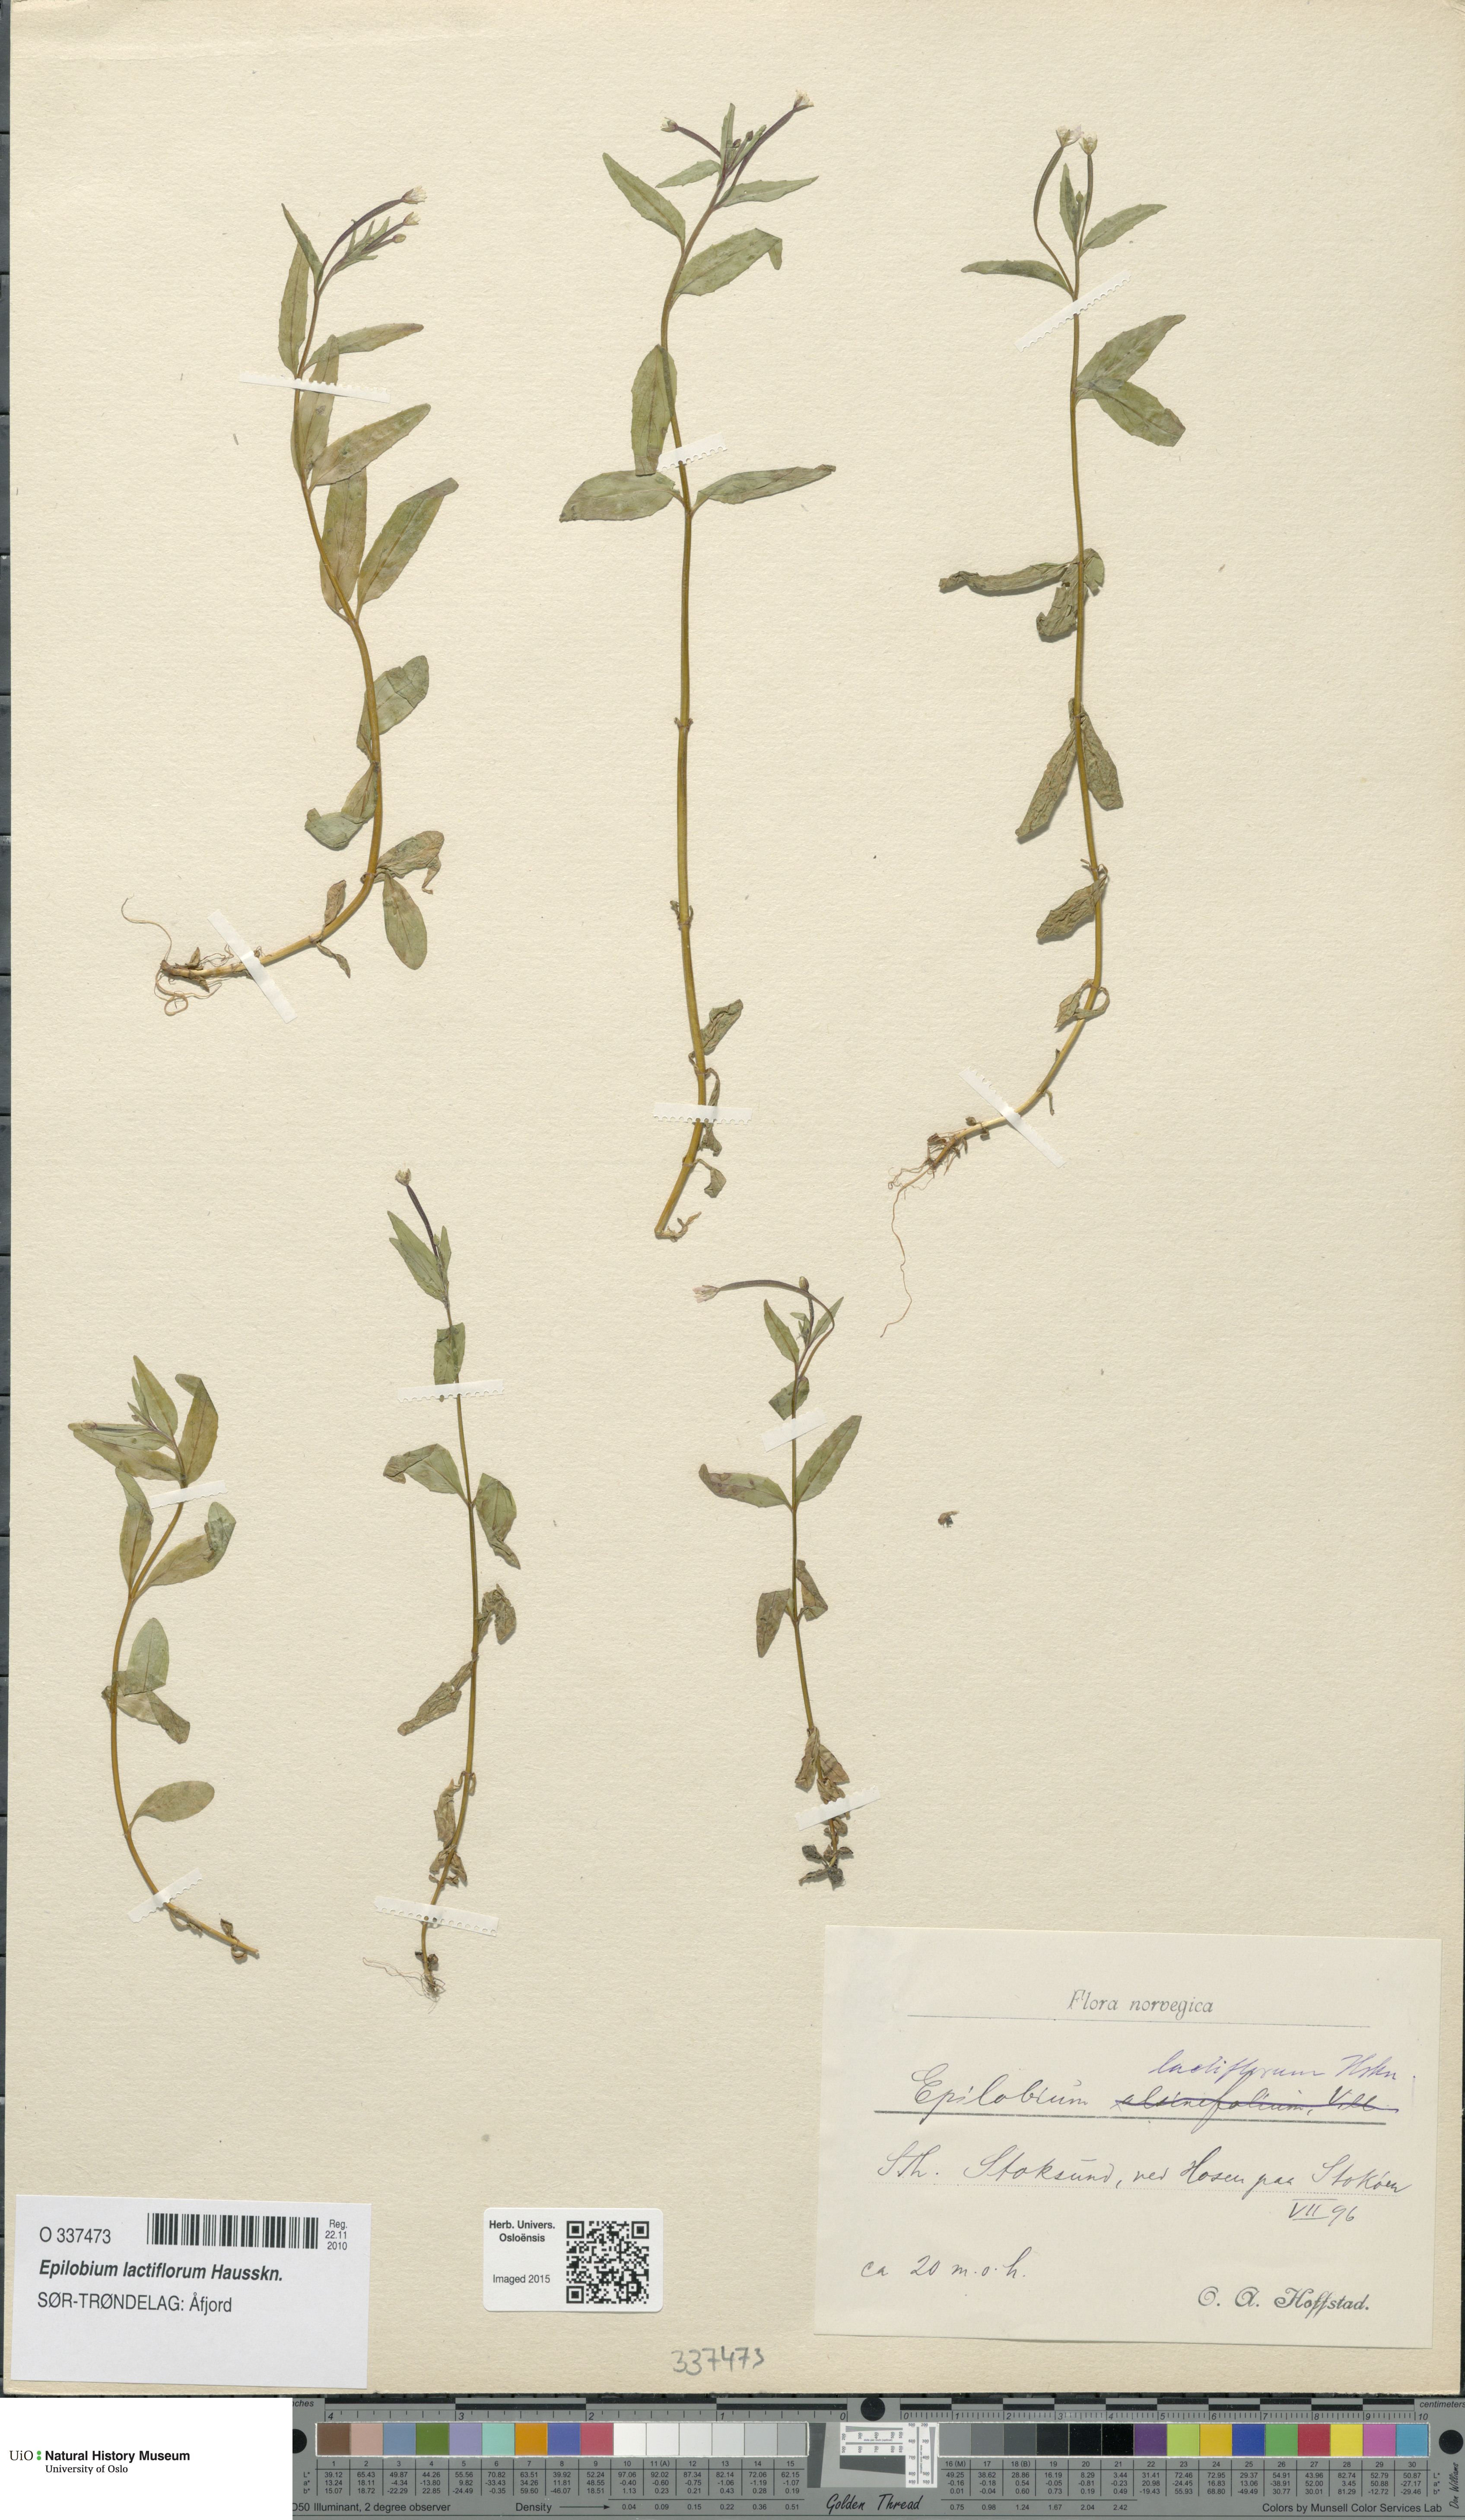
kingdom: Plantae
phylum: Tracheophyta
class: Magnoliopsida
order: Myrtales
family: Onagraceae
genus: Epilobium
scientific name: Epilobium lactiflorum
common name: Milkflower willowherb
